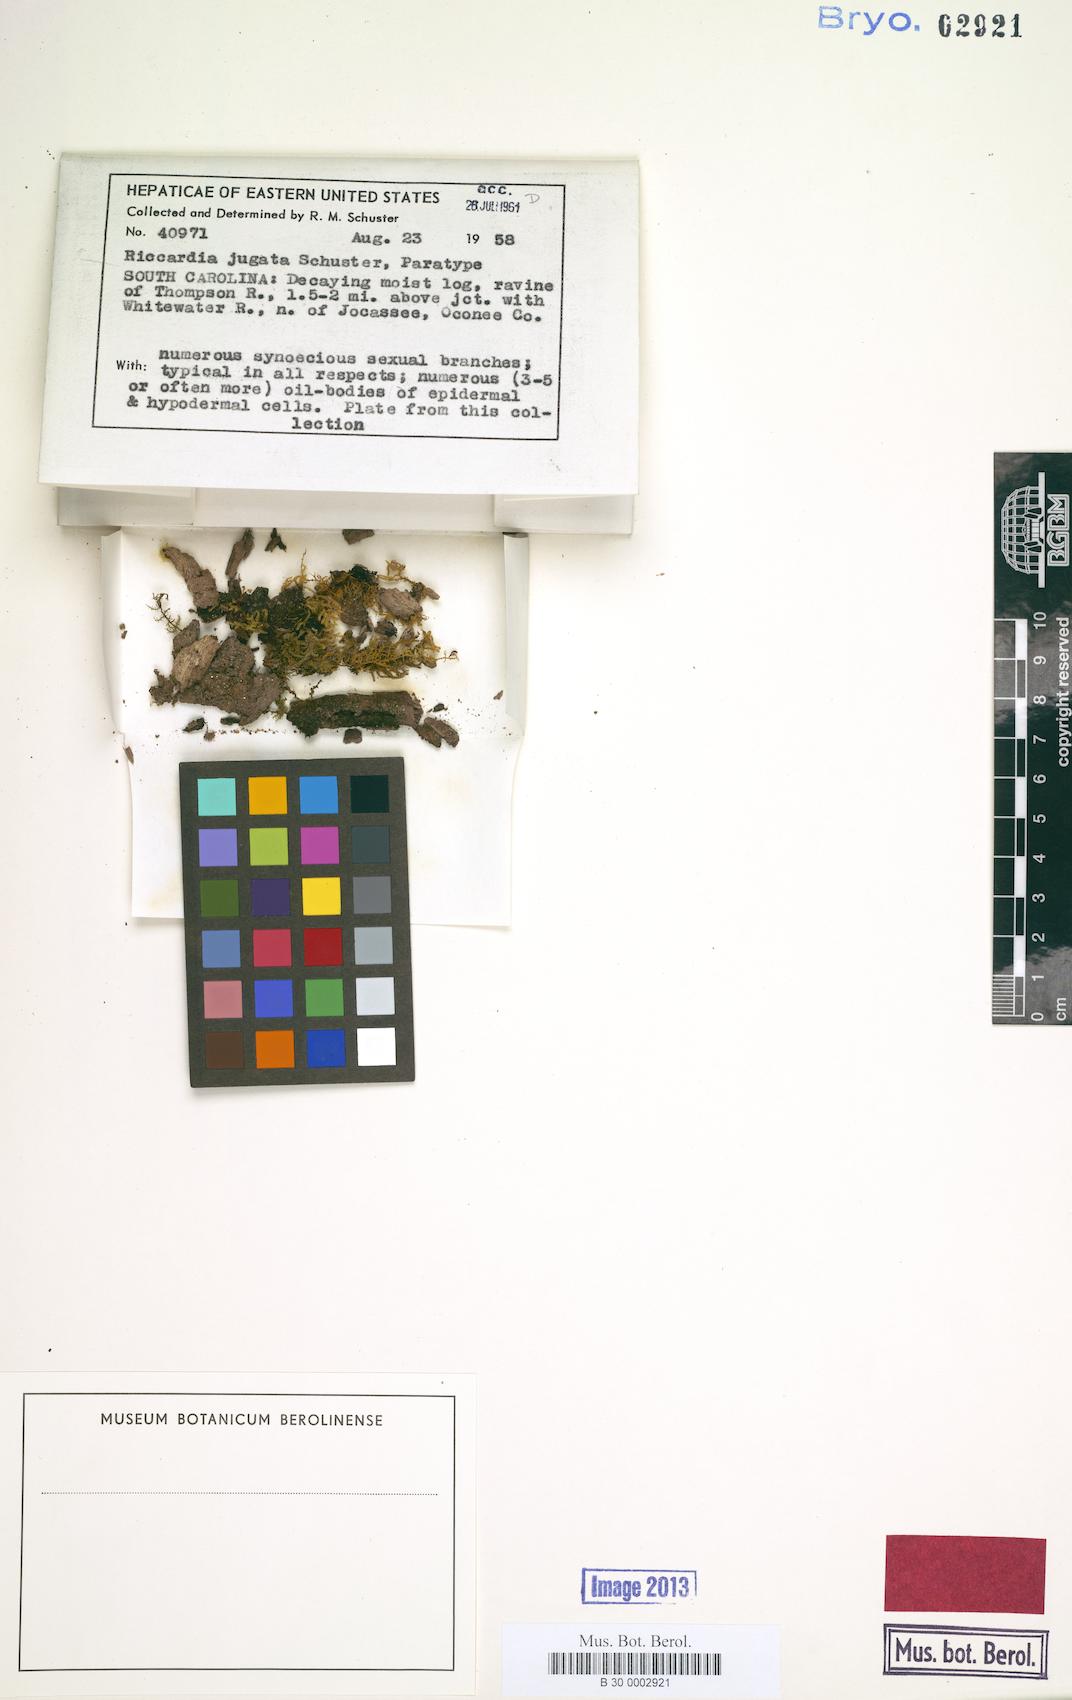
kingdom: Plantae
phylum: Marchantiophyta
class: Jungermanniopsida
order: Metzgeriales
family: Aneuraceae
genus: Riccardia
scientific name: Riccardia jugata
